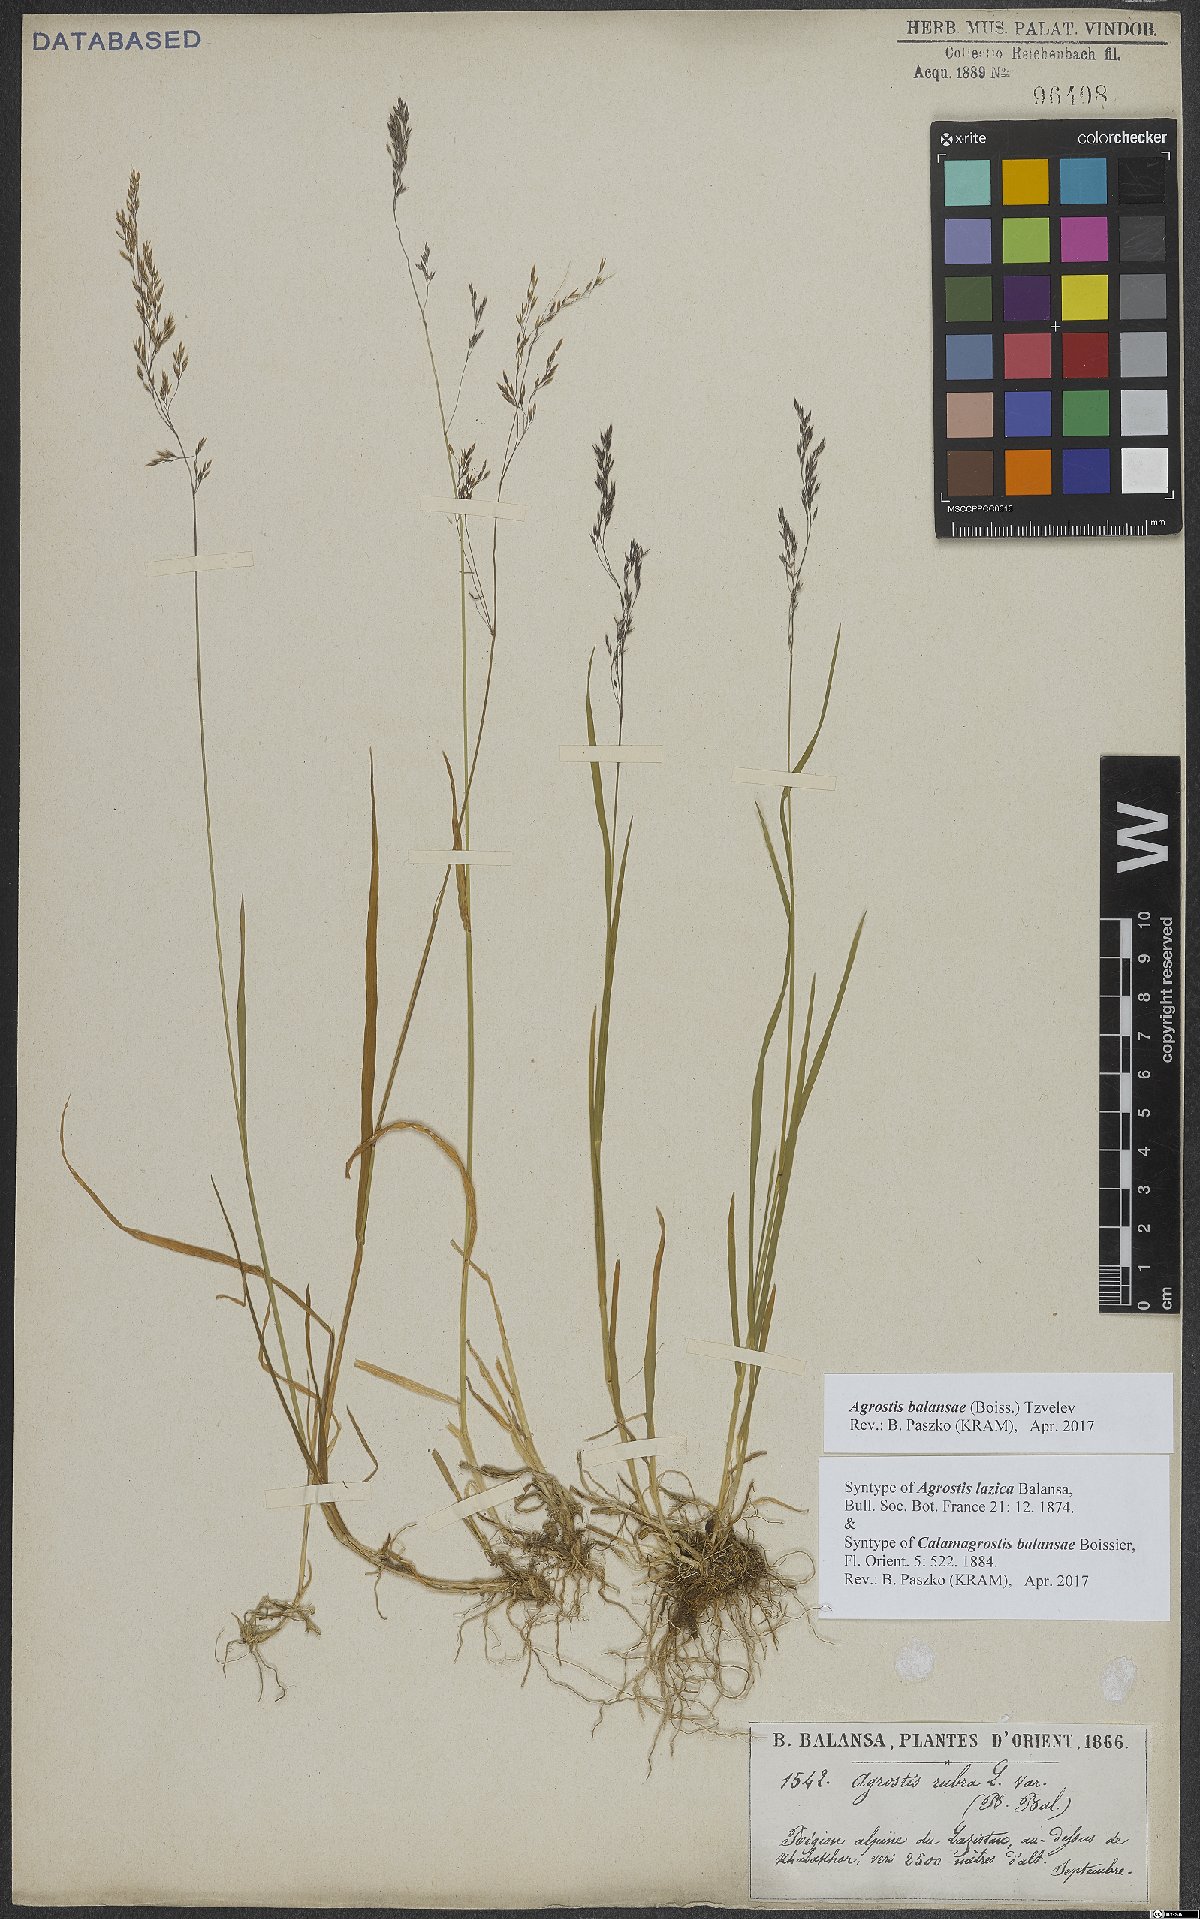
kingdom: Plantae
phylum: Tracheophyta
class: Liliopsida
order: Poales
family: Poaceae
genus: Agrostis
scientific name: Agrostis balansae
